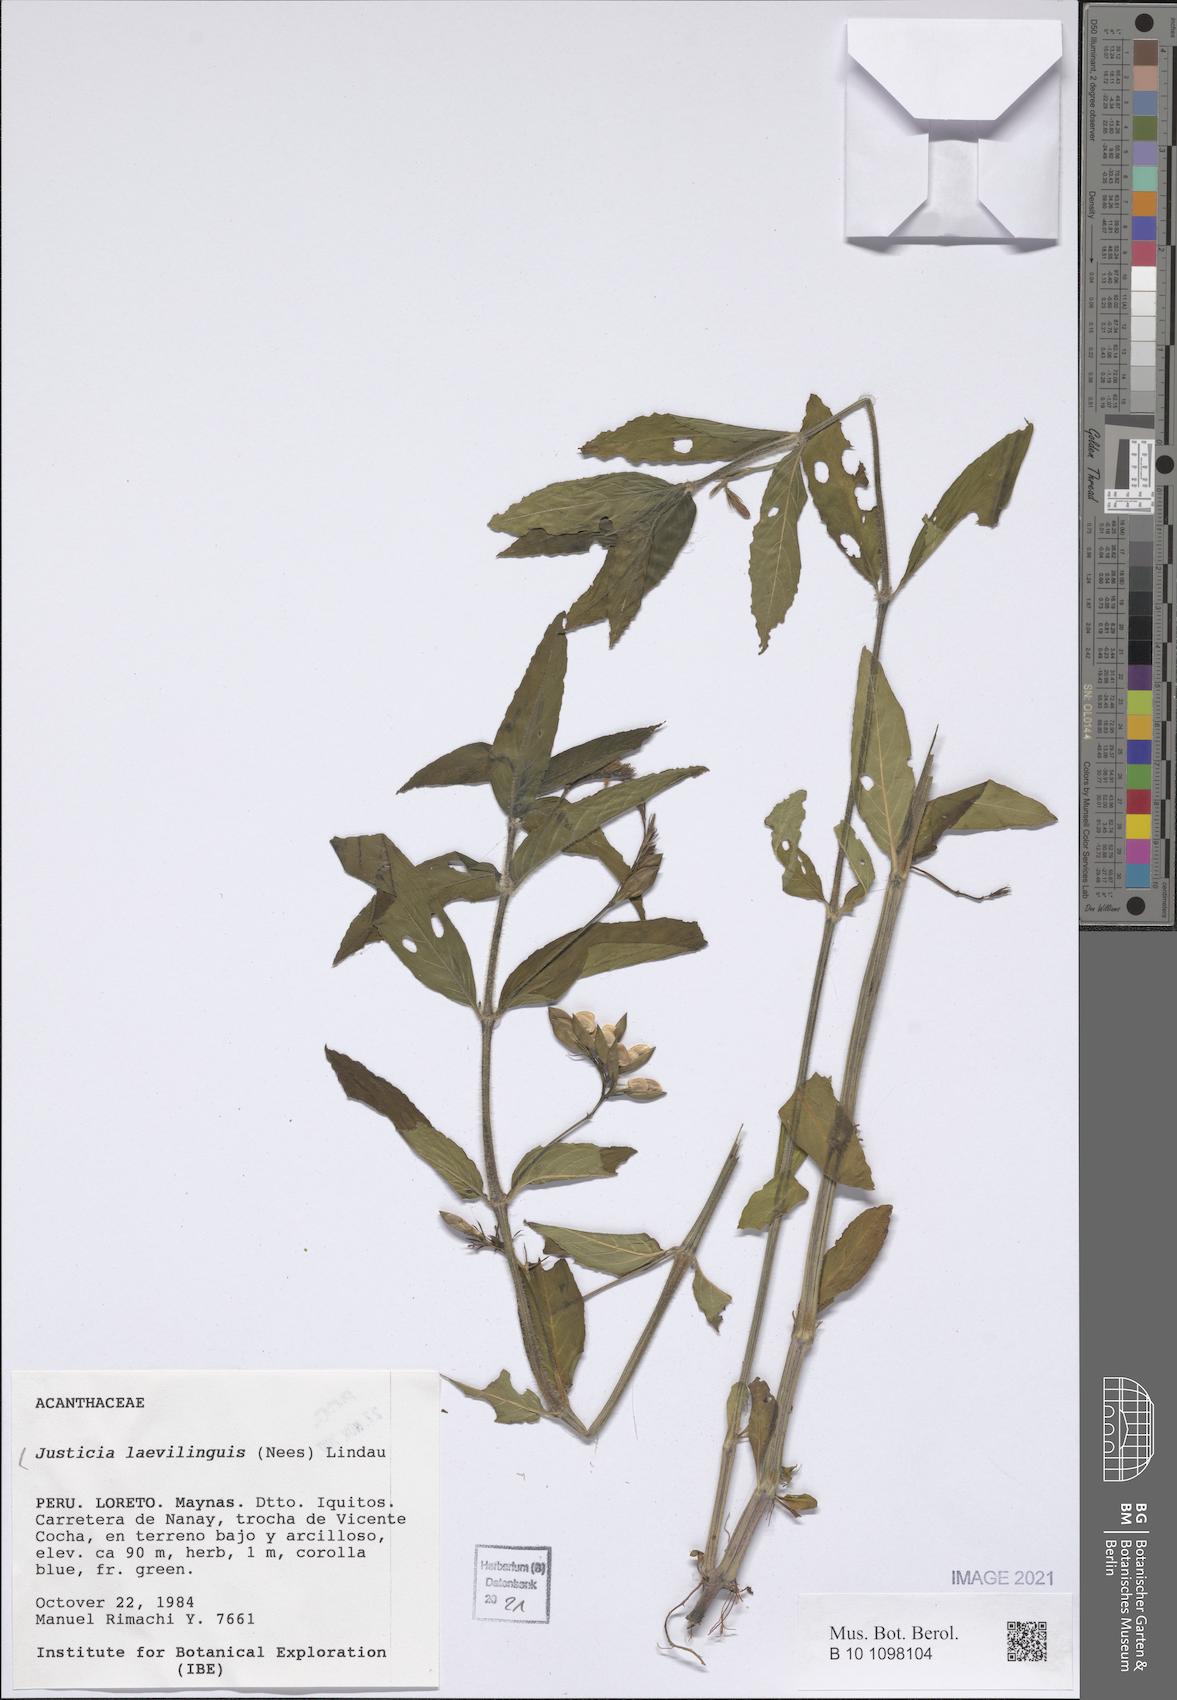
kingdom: Plantae
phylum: Tracheophyta
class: Magnoliopsida
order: Lamiales
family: Acanthaceae
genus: Dianthera
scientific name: Dianthera laevilinguis
